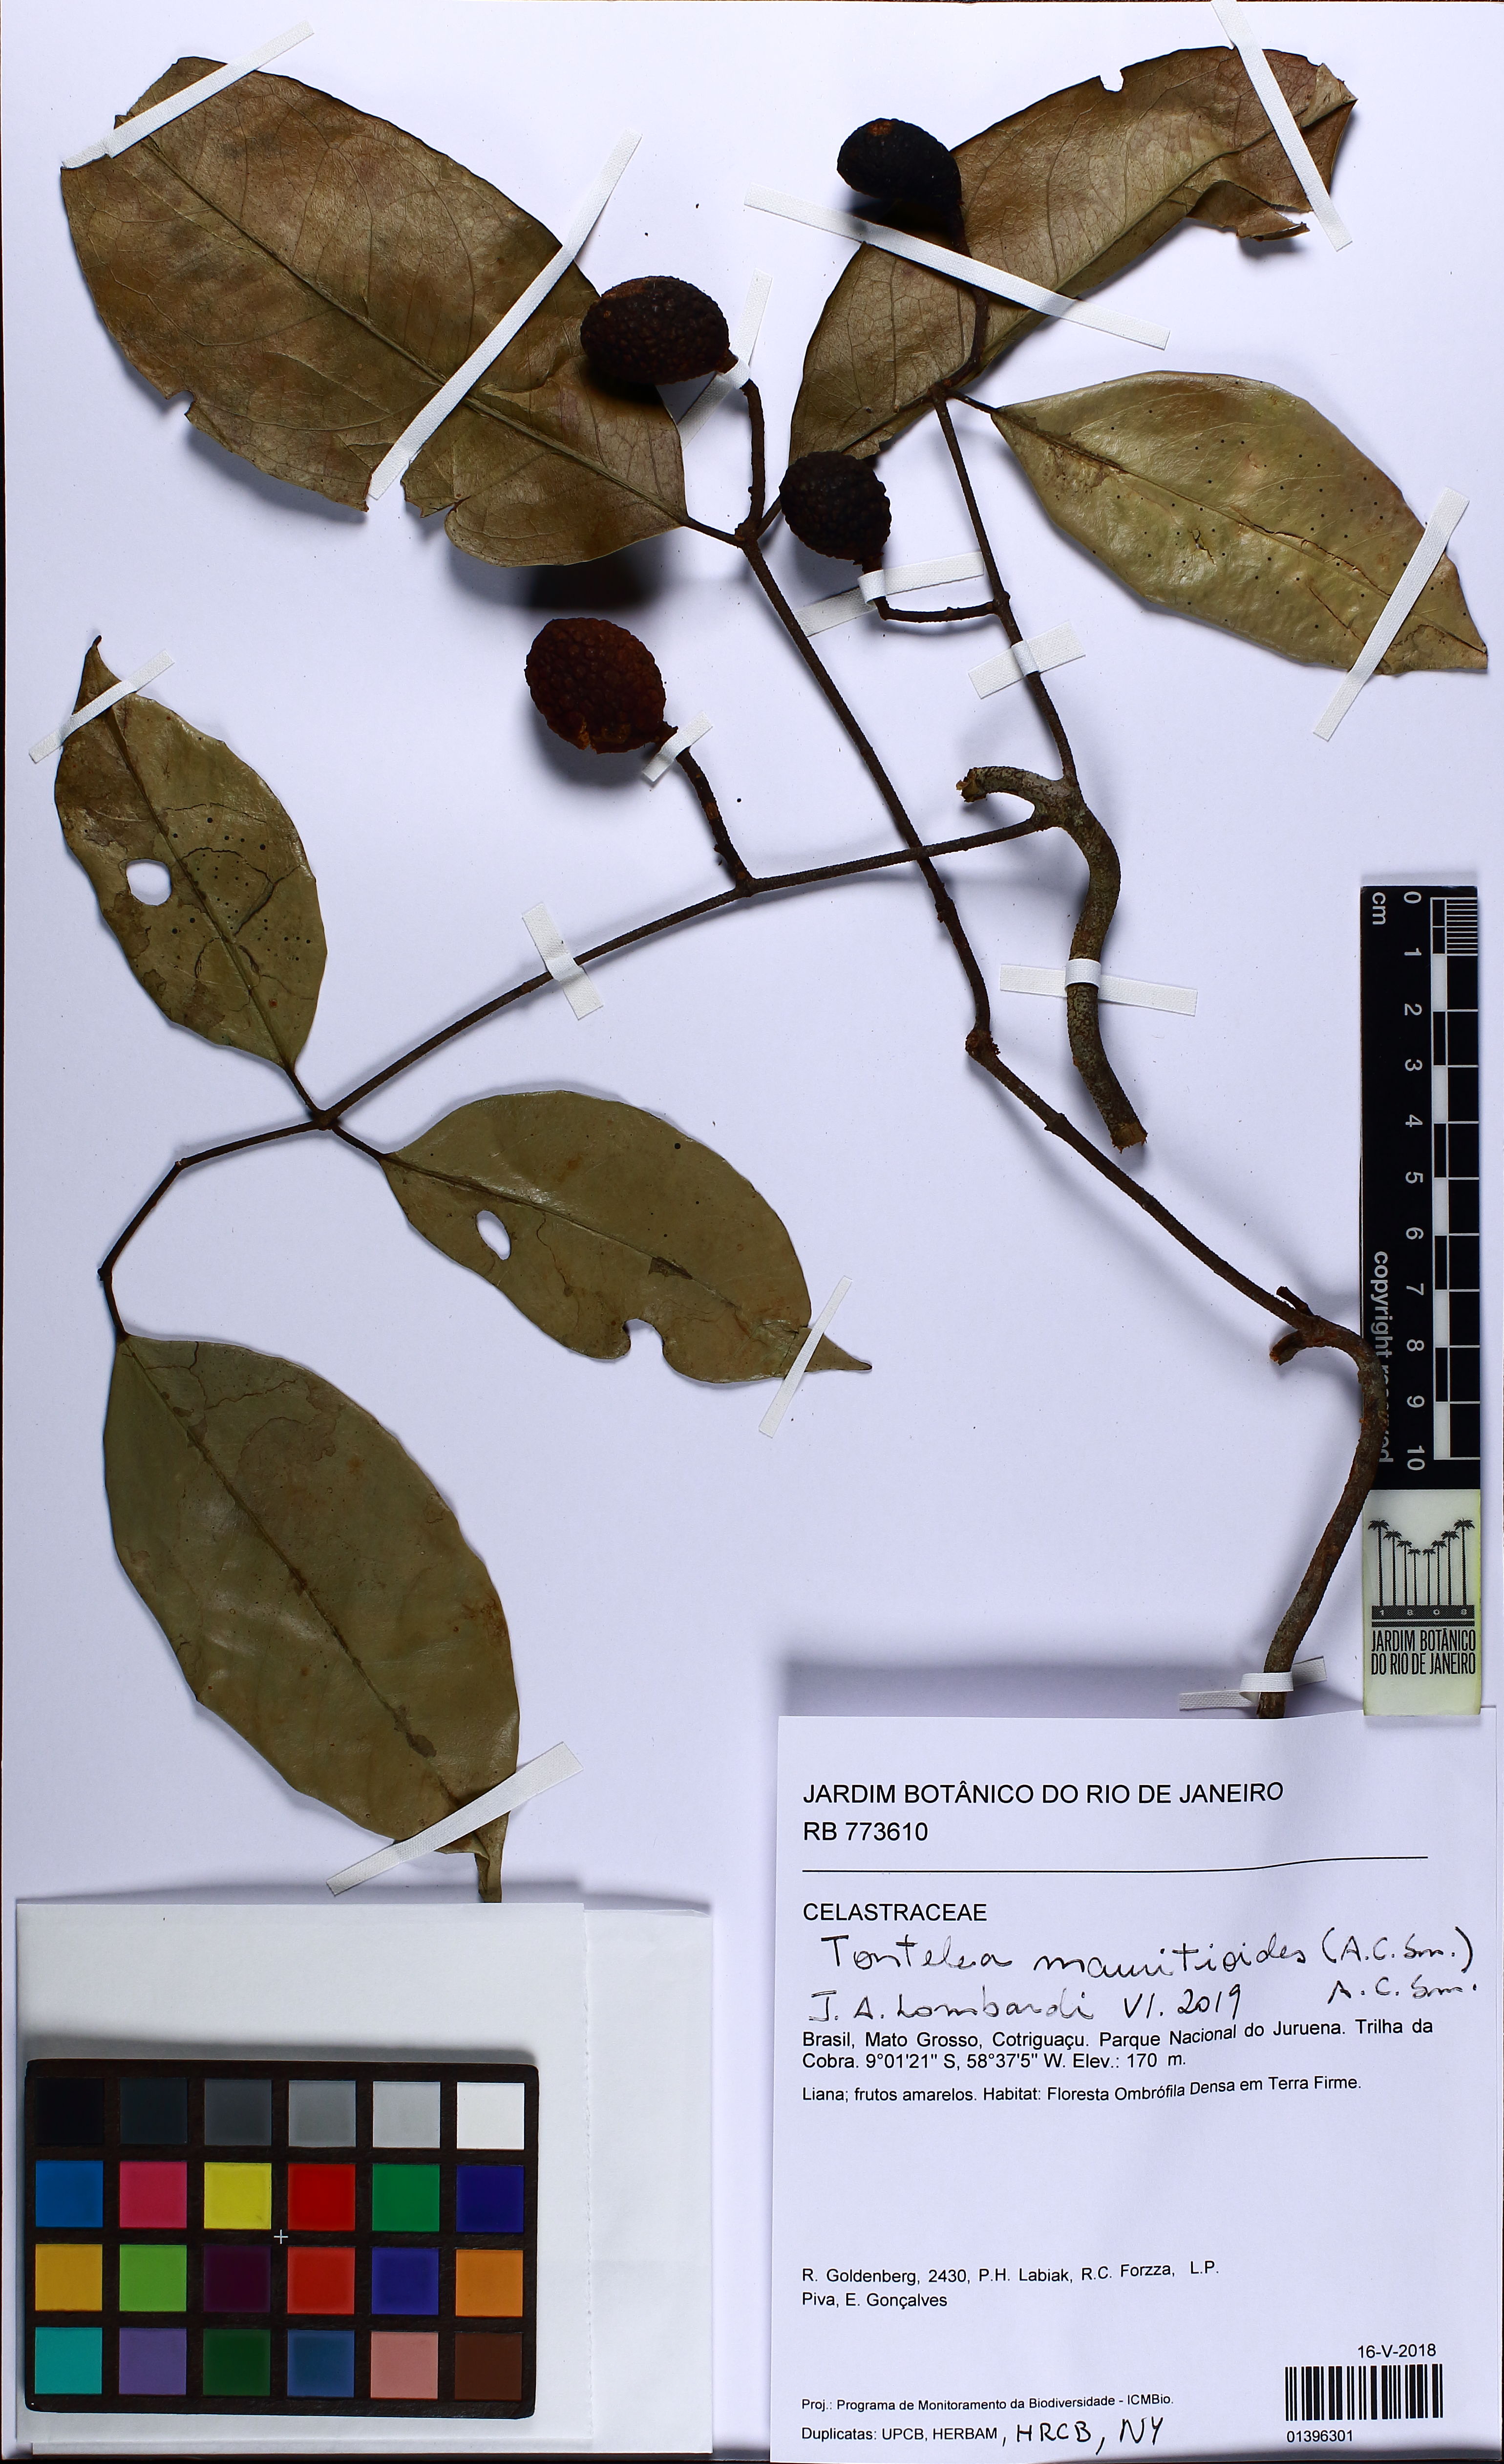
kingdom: Plantae
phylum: Tracheophyta
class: Magnoliopsida
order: Celastrales
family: Celastraceae
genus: Tontelea
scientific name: Tontelea mauritioides
